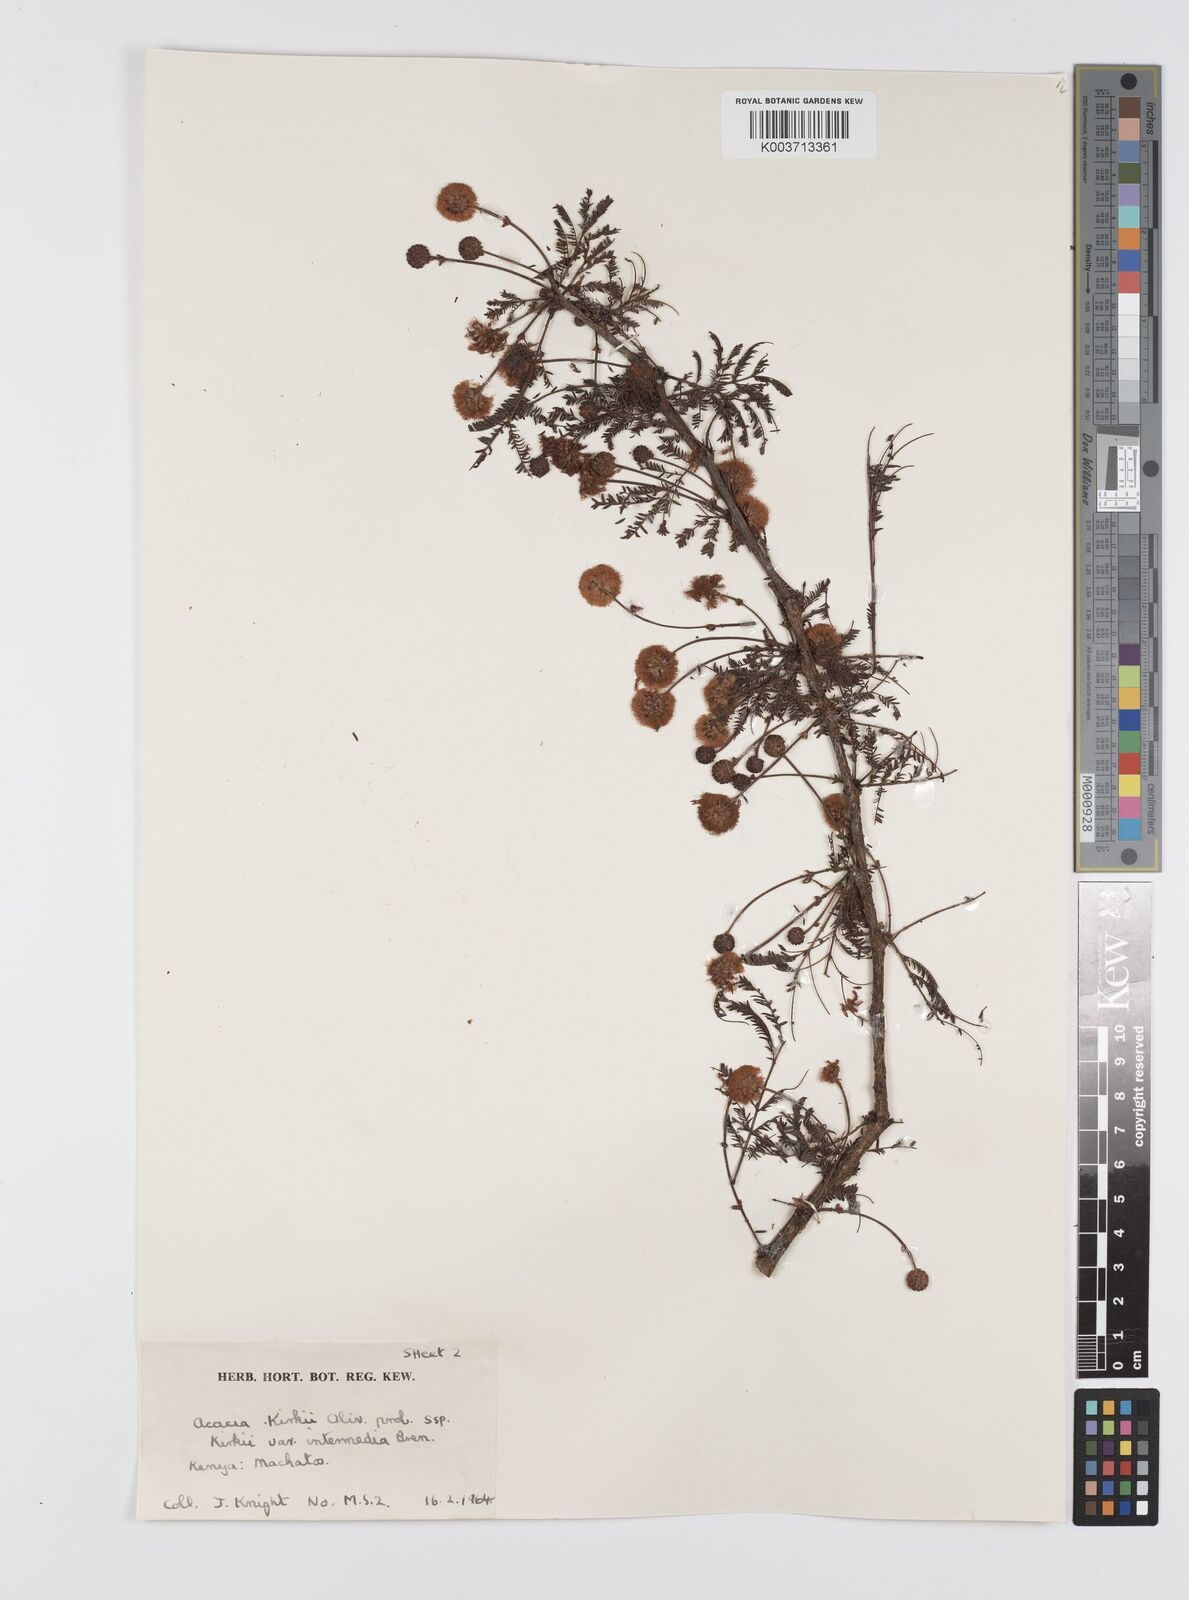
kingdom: Plantae
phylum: Tracheophyta
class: Magnoliopsida
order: Fabales
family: Fabaceae
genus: Vachellia
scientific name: Vachellia kirkii
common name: Flood-plain acacia
